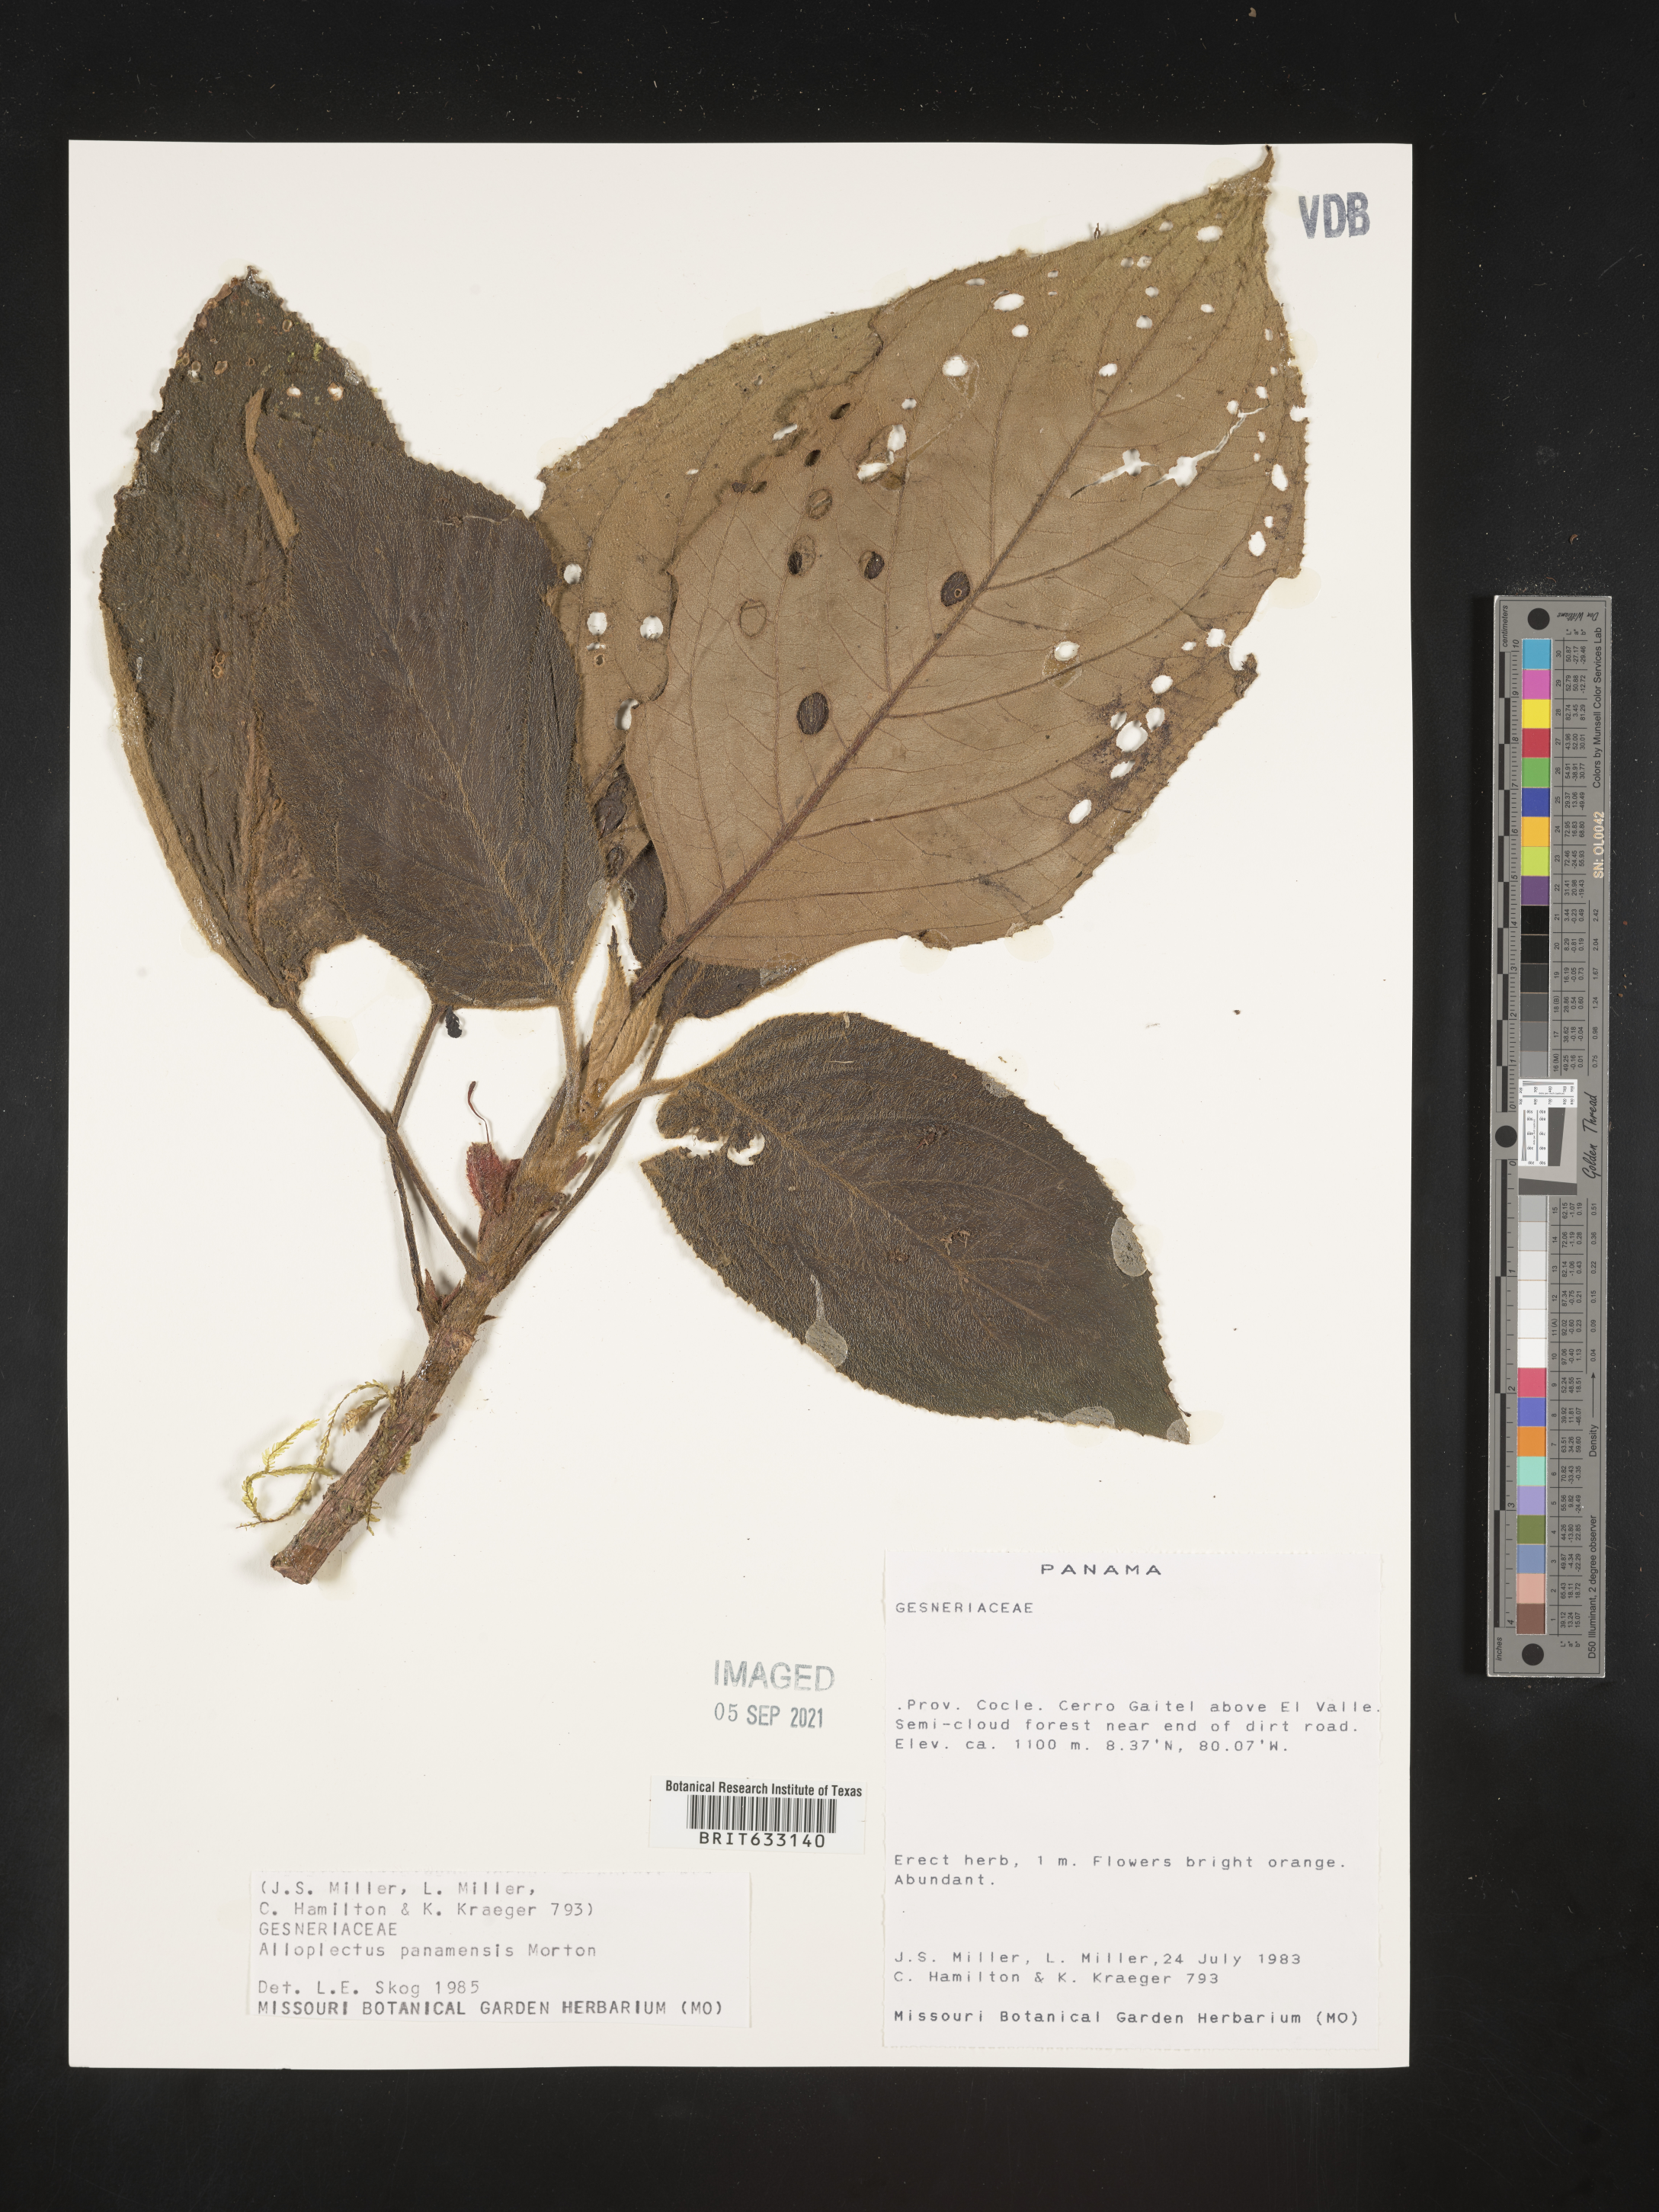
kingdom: Plantae
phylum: Tracheophyta
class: Magnoliopsida
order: Lamiales
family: Gesneriaceae
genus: Alloplectus
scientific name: Alloplectus
